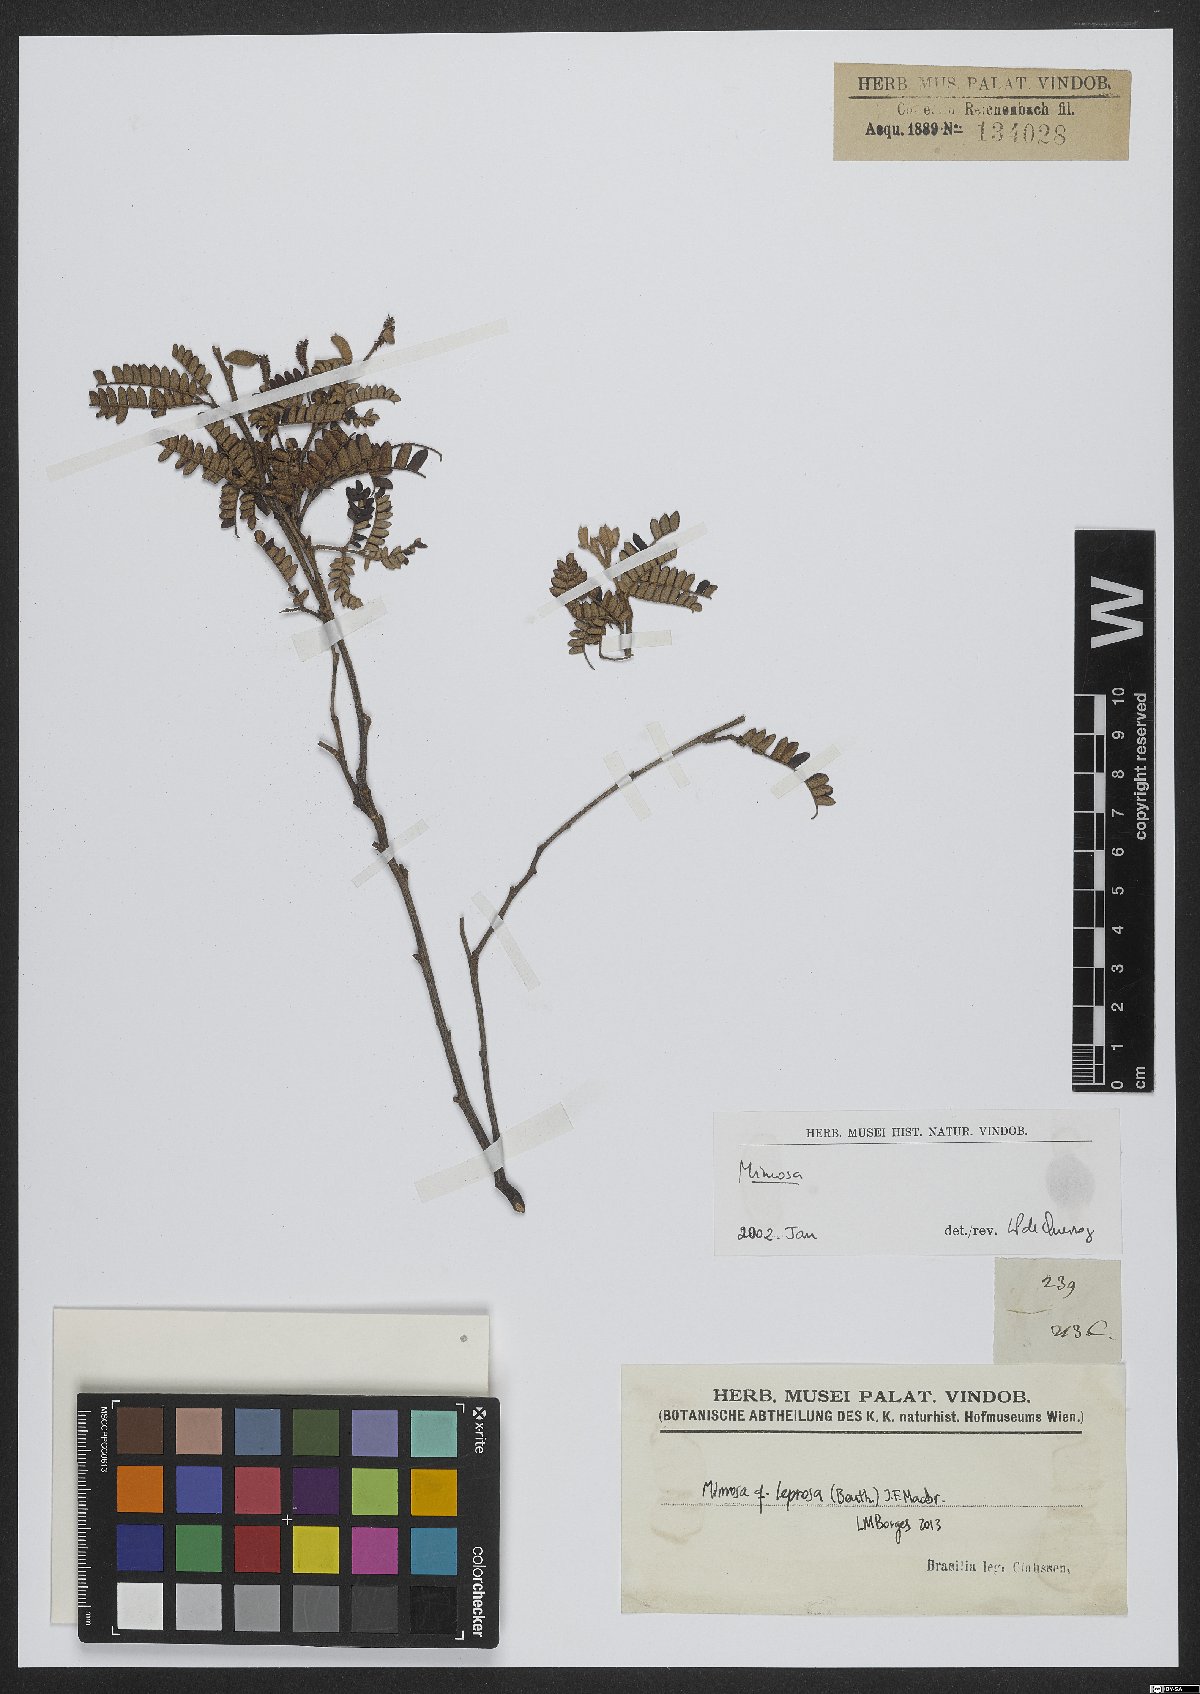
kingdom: Plantae
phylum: Tracheophyta
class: Magnoliopsida
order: Fabales
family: Fabaceae
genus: Mimosa
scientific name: Mimosa leprosa
